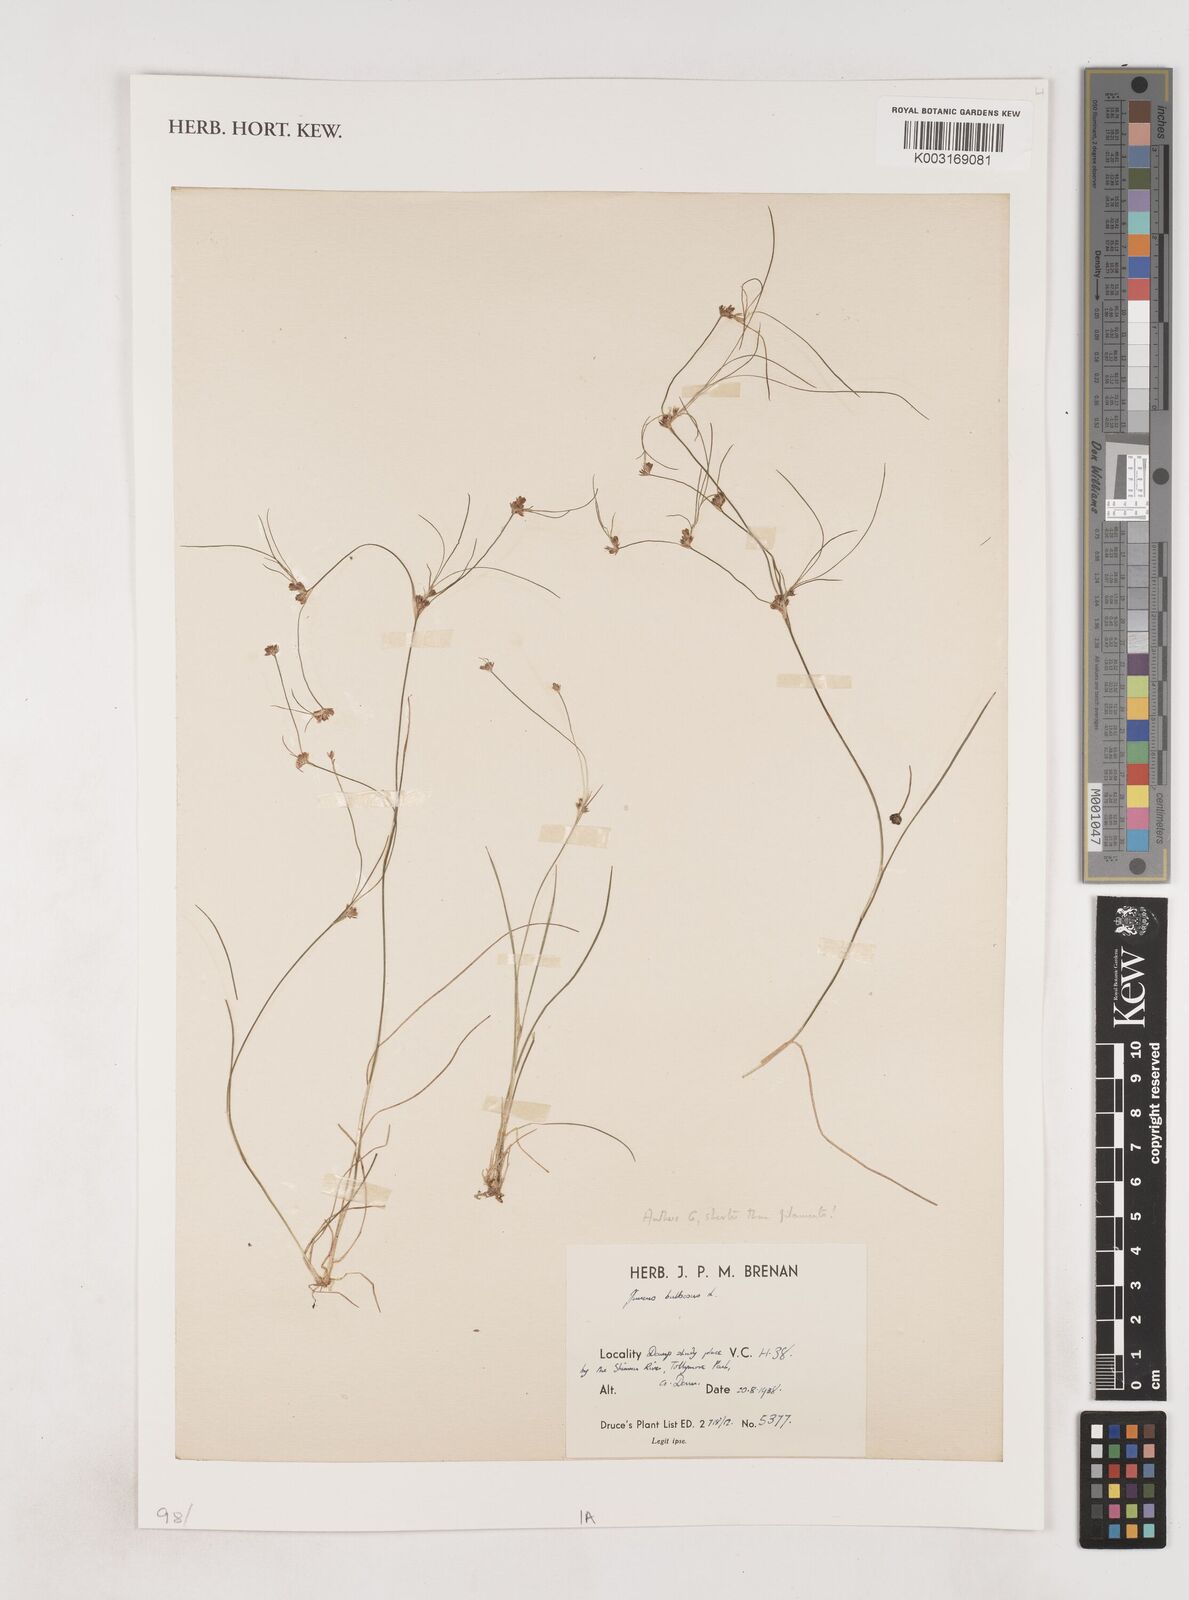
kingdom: Plantae
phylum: Tracheophyta
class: Liliopsida
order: Poales
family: Juncaceae
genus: Juncus
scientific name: Juncus bulbosus
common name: Bulbous rush
